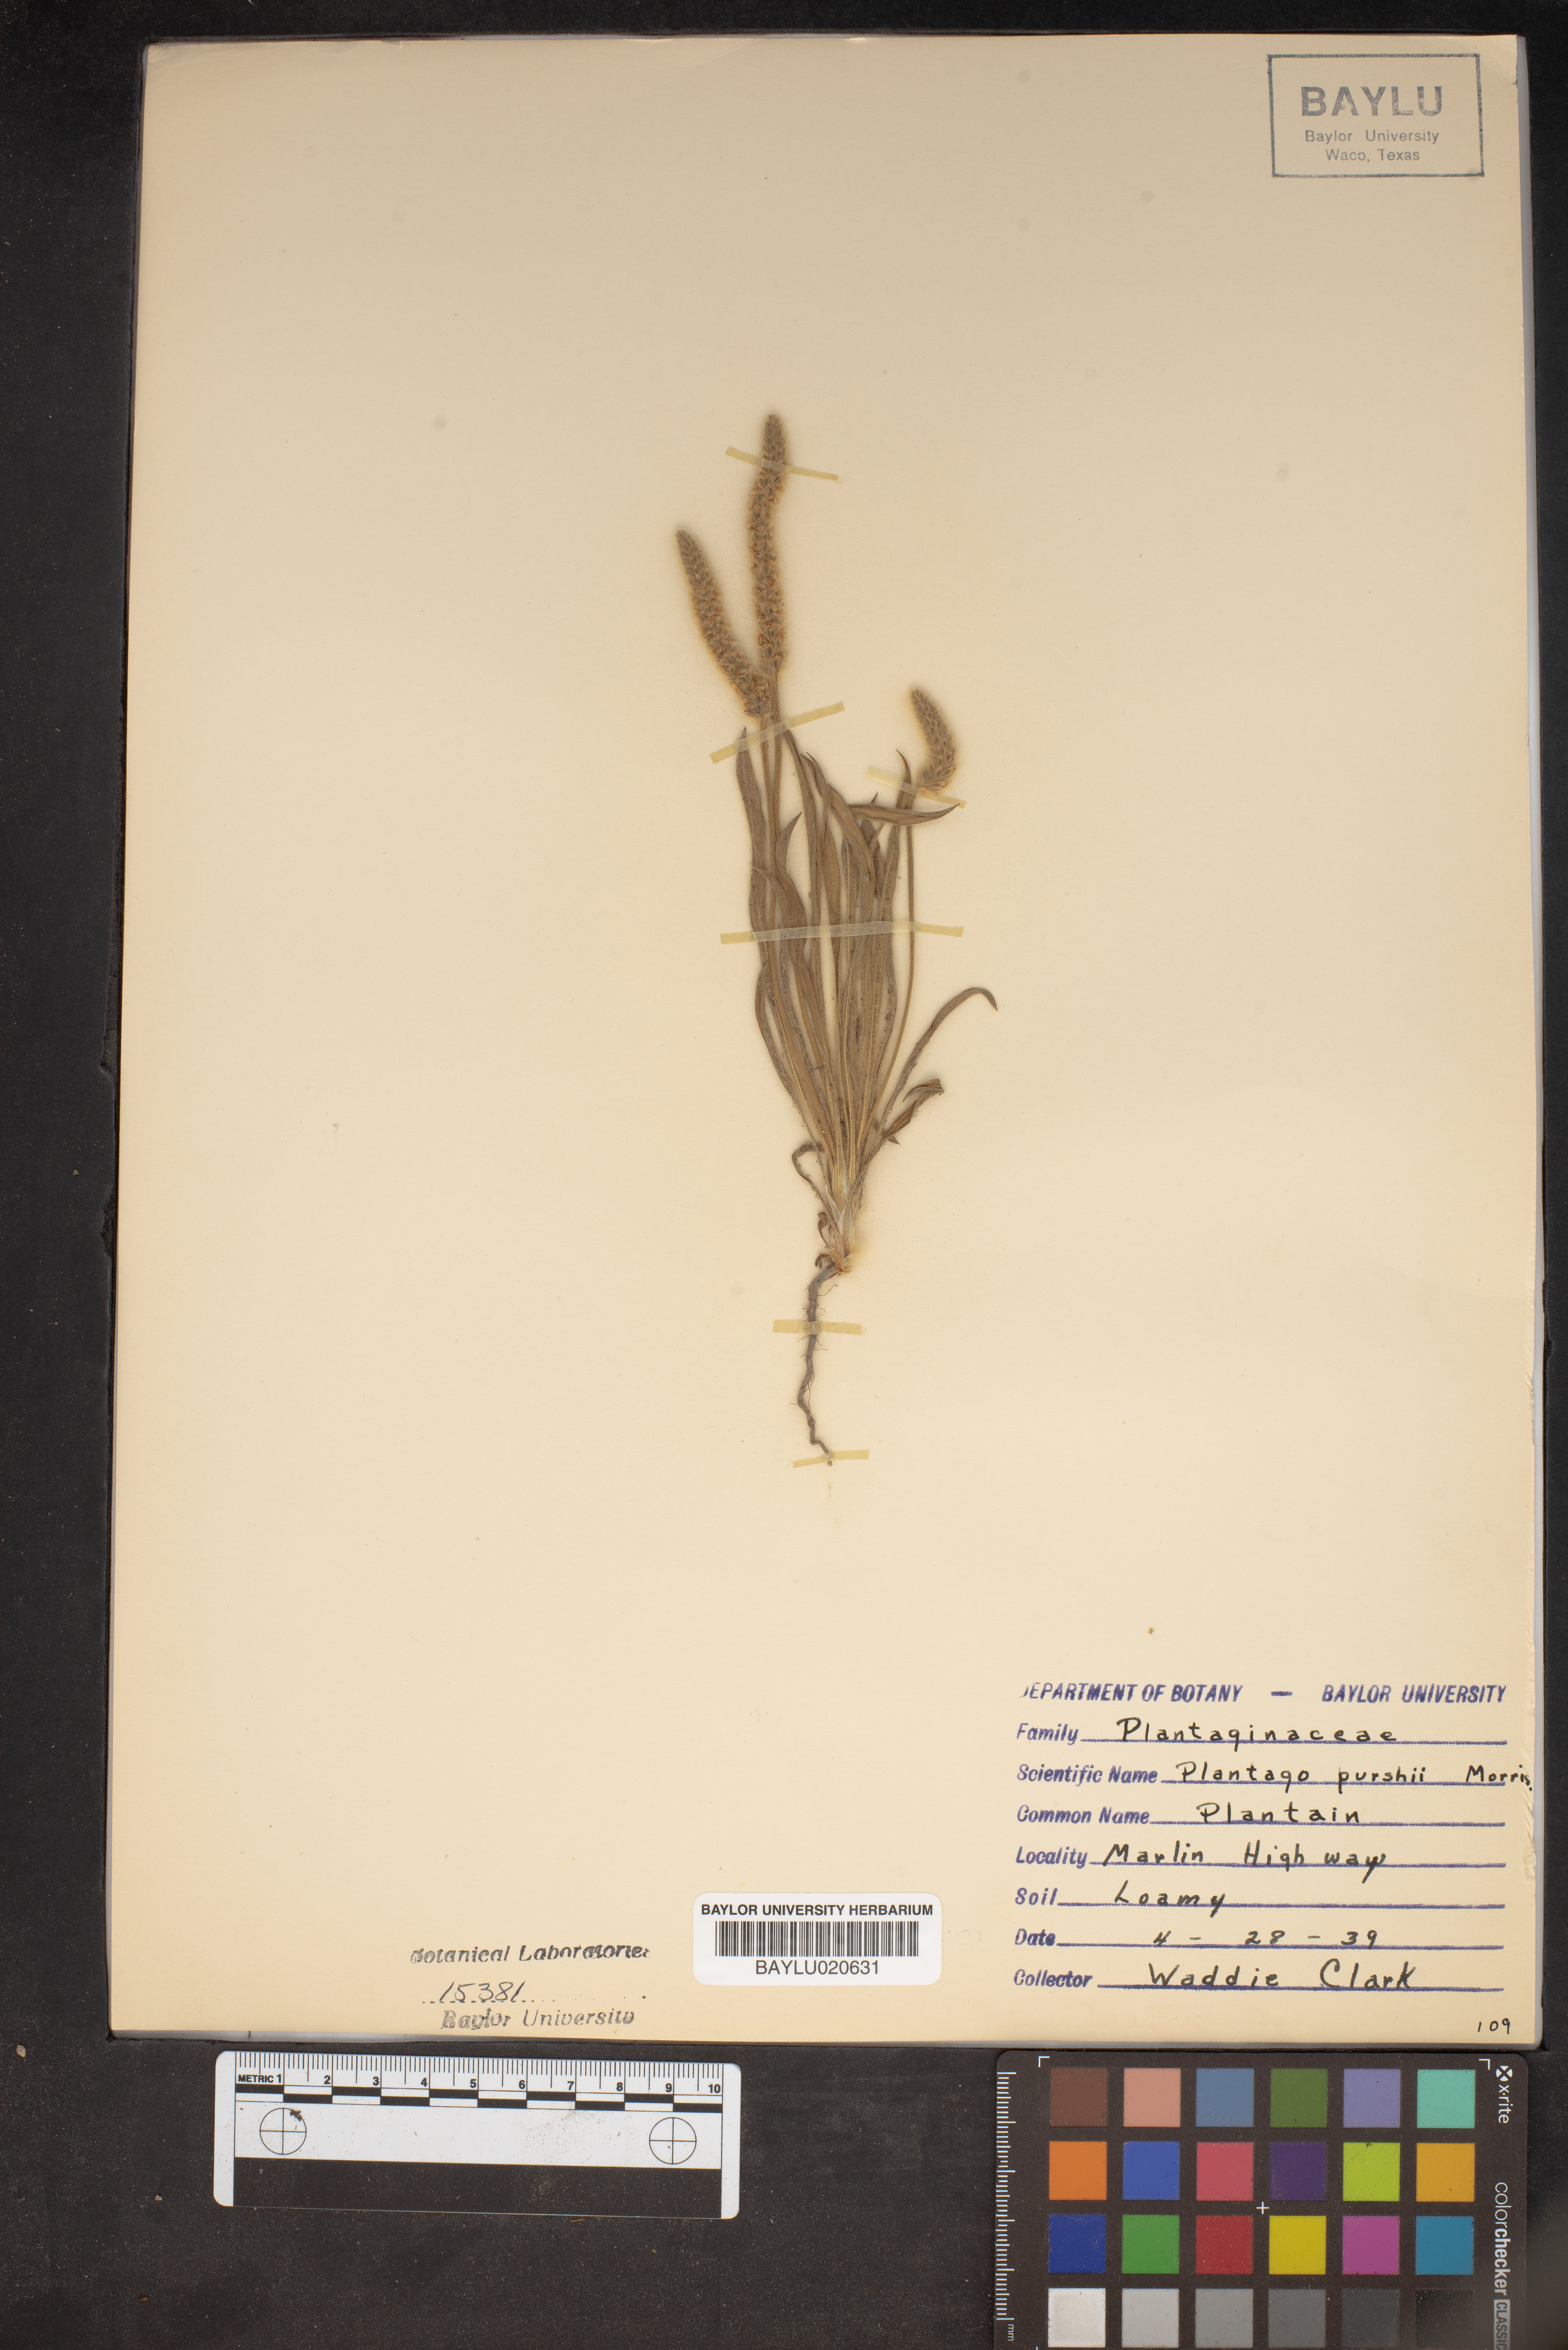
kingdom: Plantae
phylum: Tracheophyta
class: Magnoliopsida
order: Lamiales
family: Plantaginaceae
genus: Plantago
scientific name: Plantago patagonica
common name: Patagonia indian-wheat
